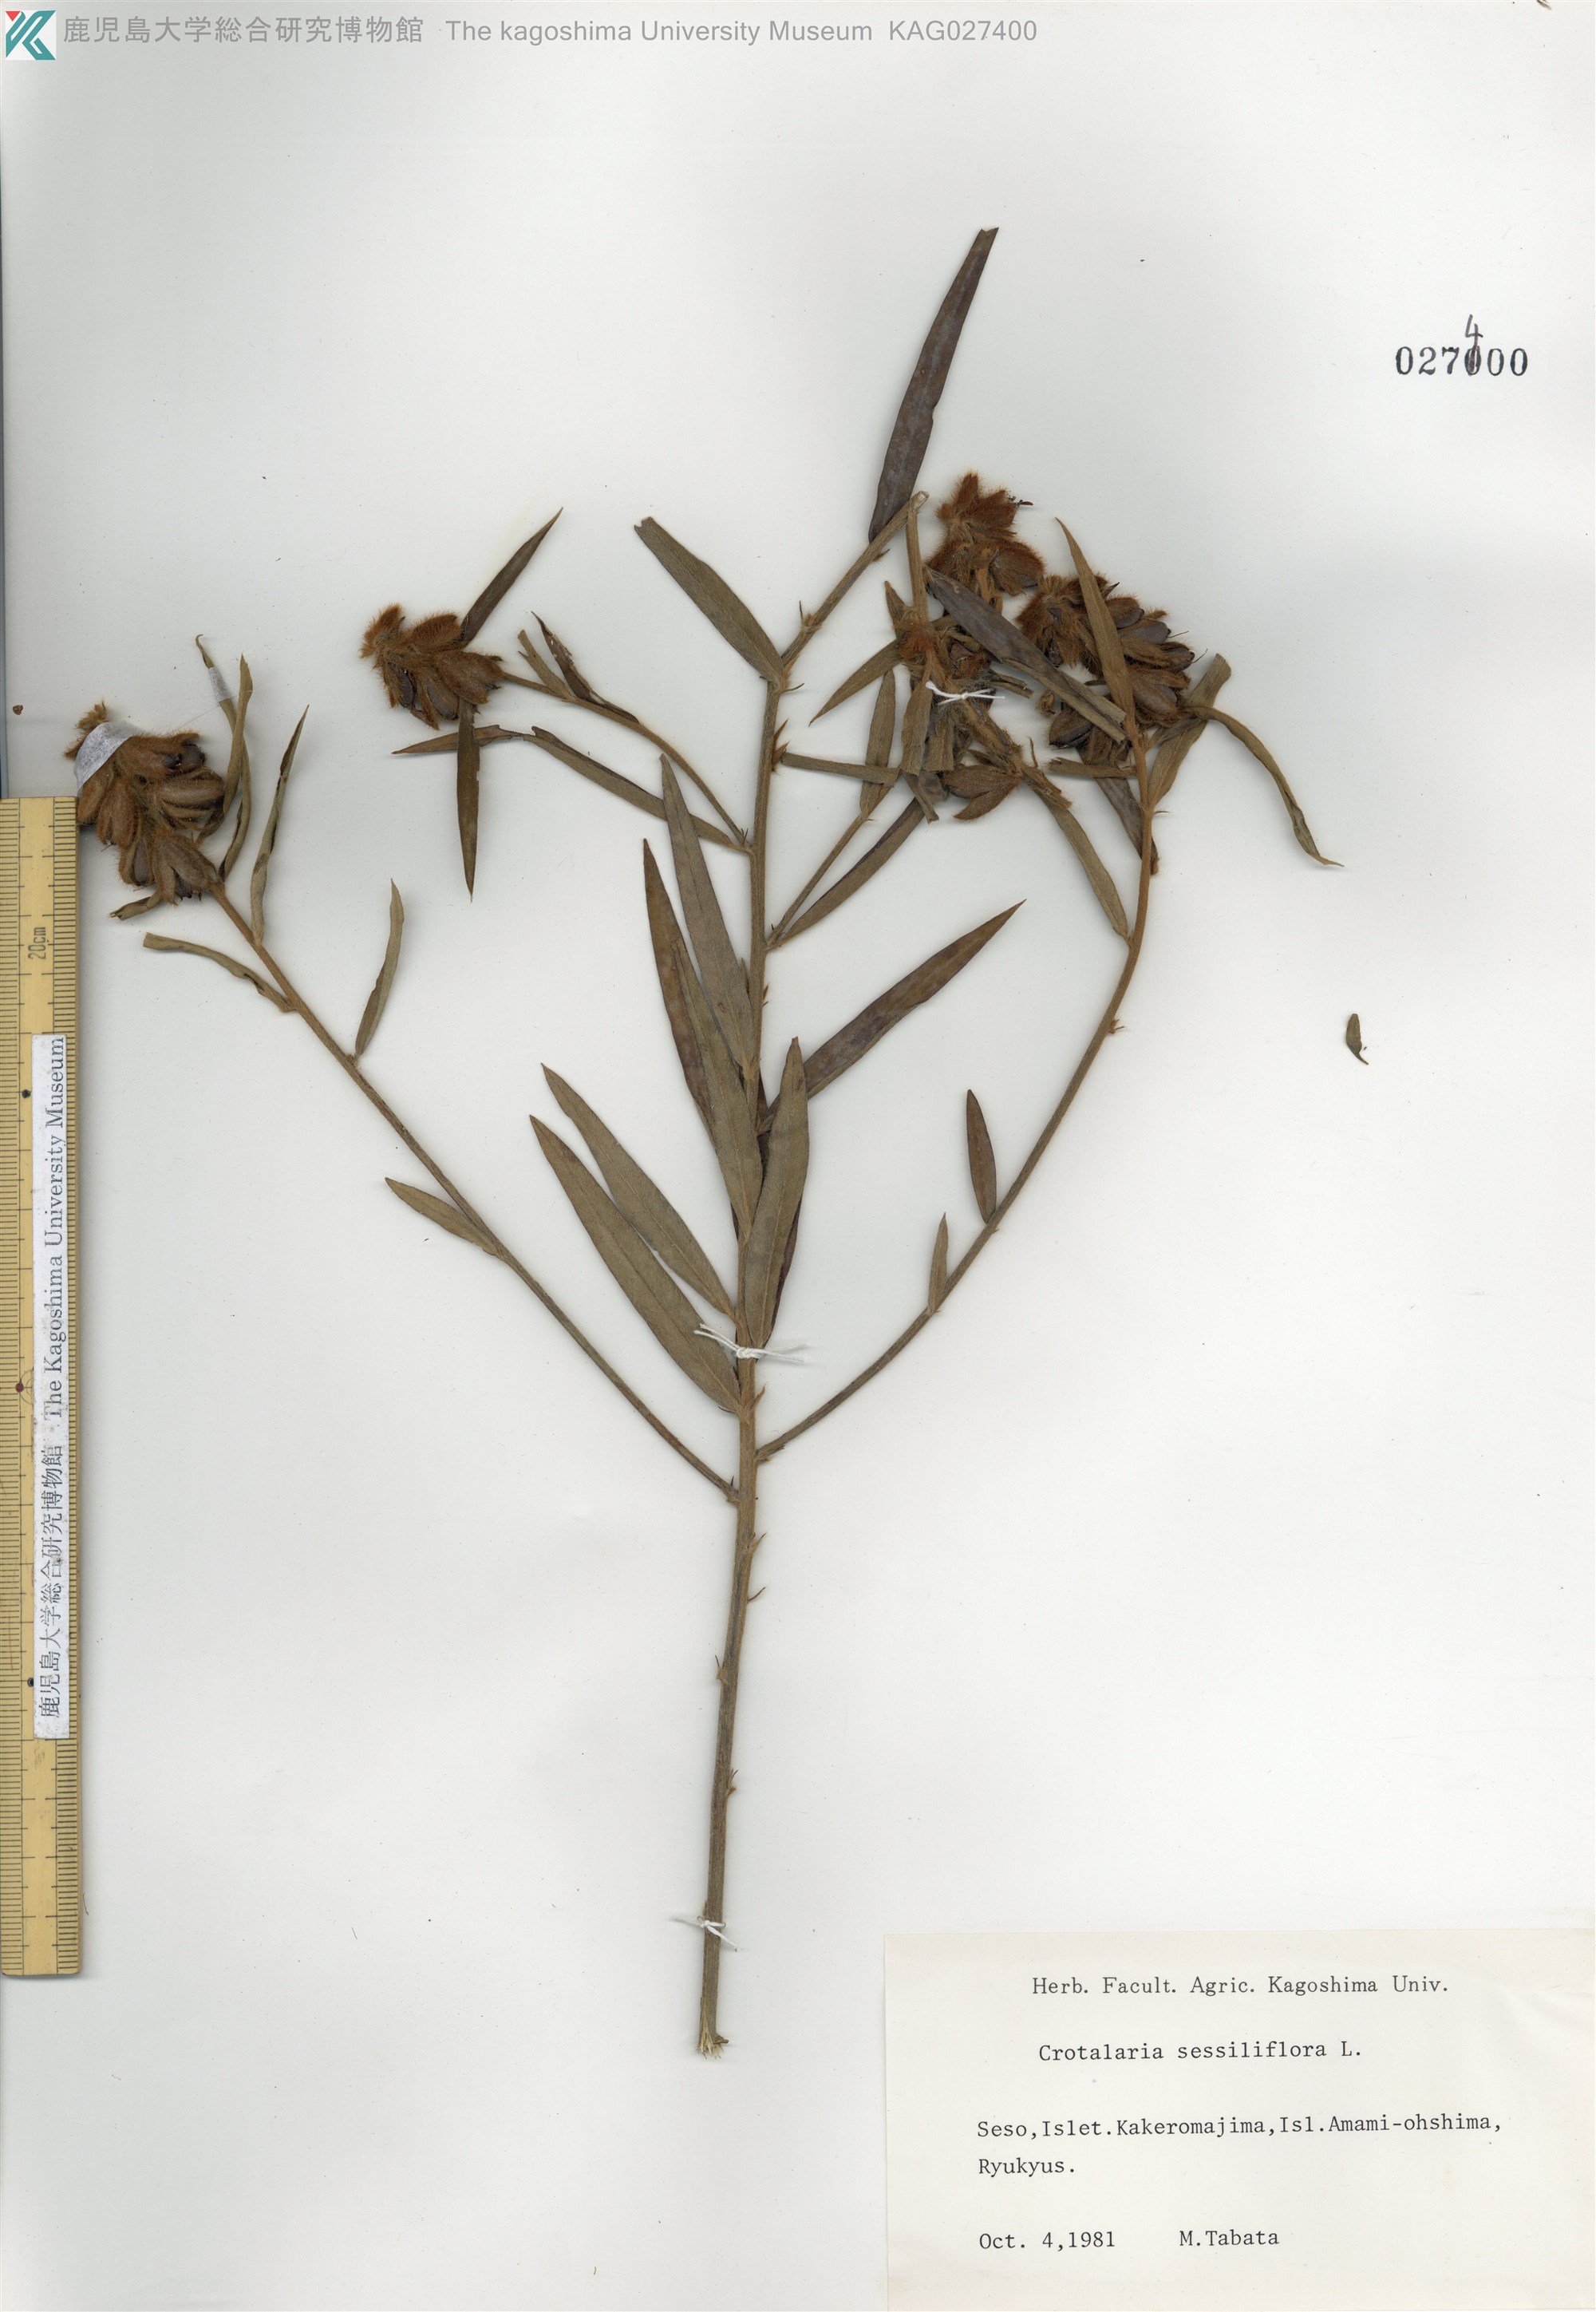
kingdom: Plantae
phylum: Tracheophyta
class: Magnoliopsida
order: Fabales
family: Fabaceae
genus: Crotalaria
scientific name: Crotalaria sessiliflora
